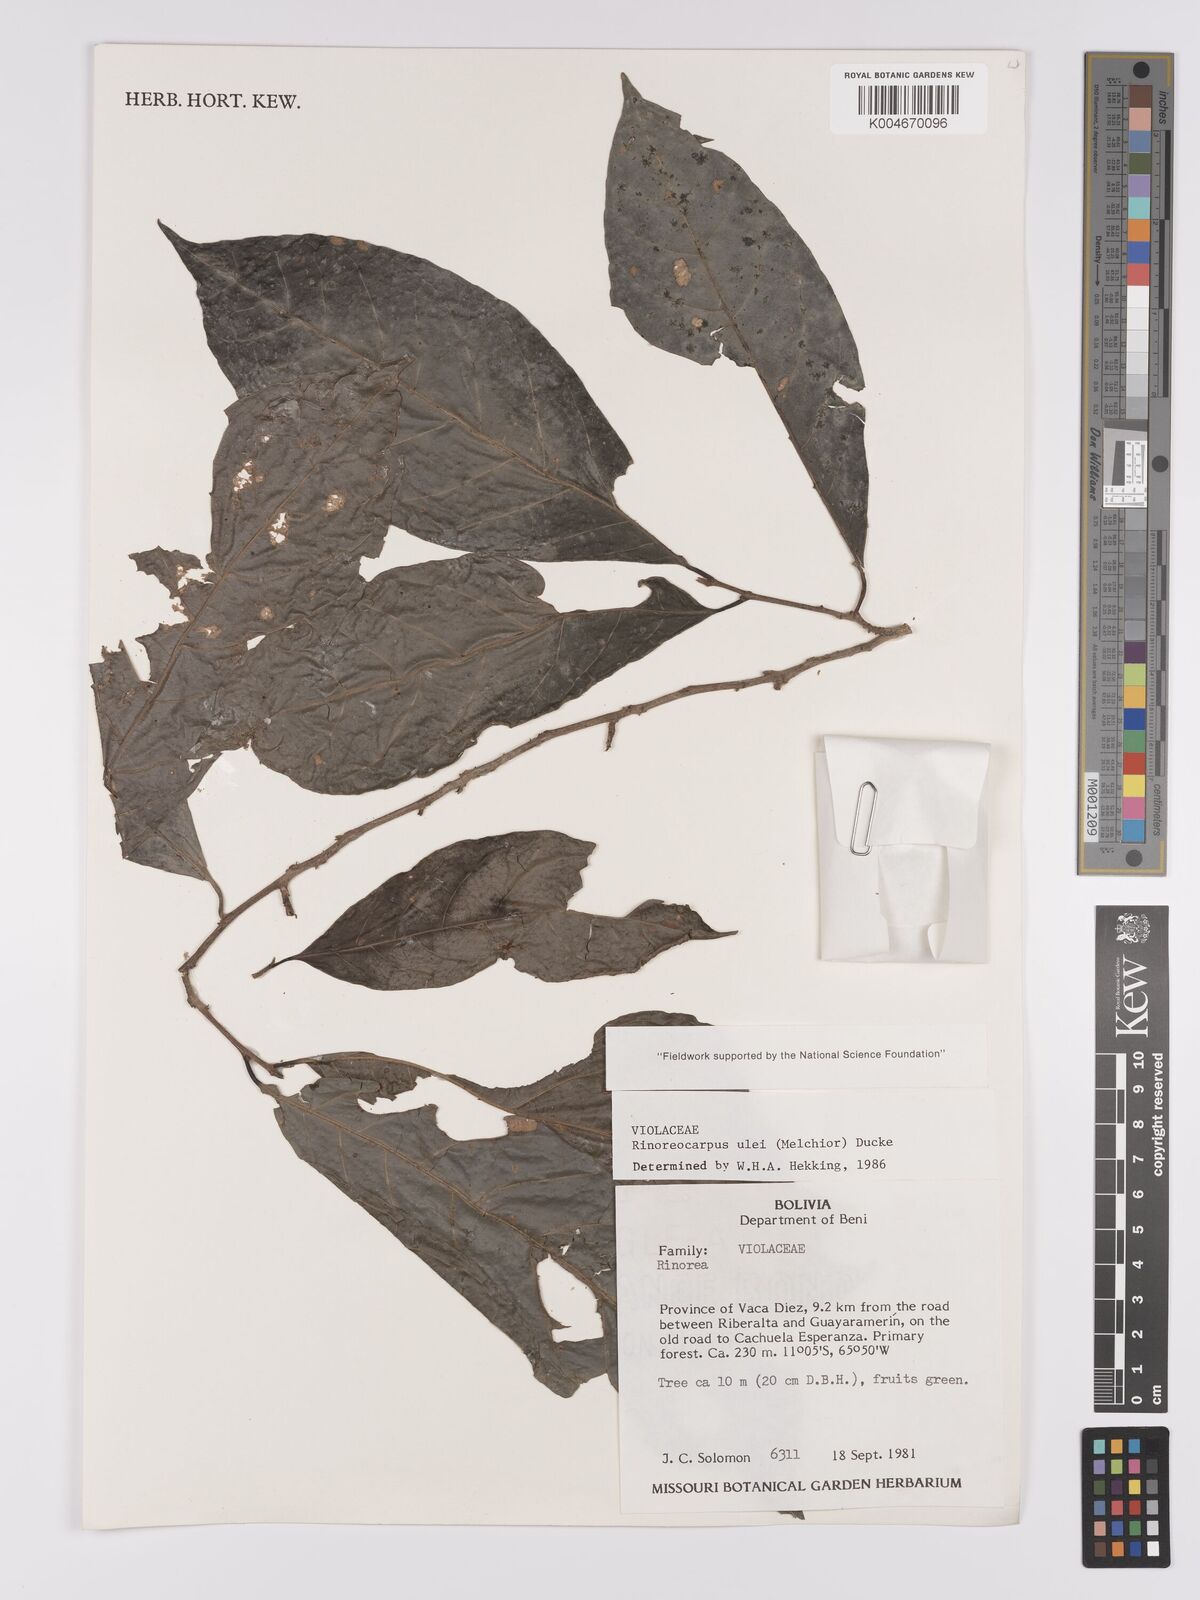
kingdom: Plantae
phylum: Tracheophyta
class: Magnoliopsida
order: Malpighiales
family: Violaceae
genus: Rinoreocarpus
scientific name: Rinoreocarpus ulei
